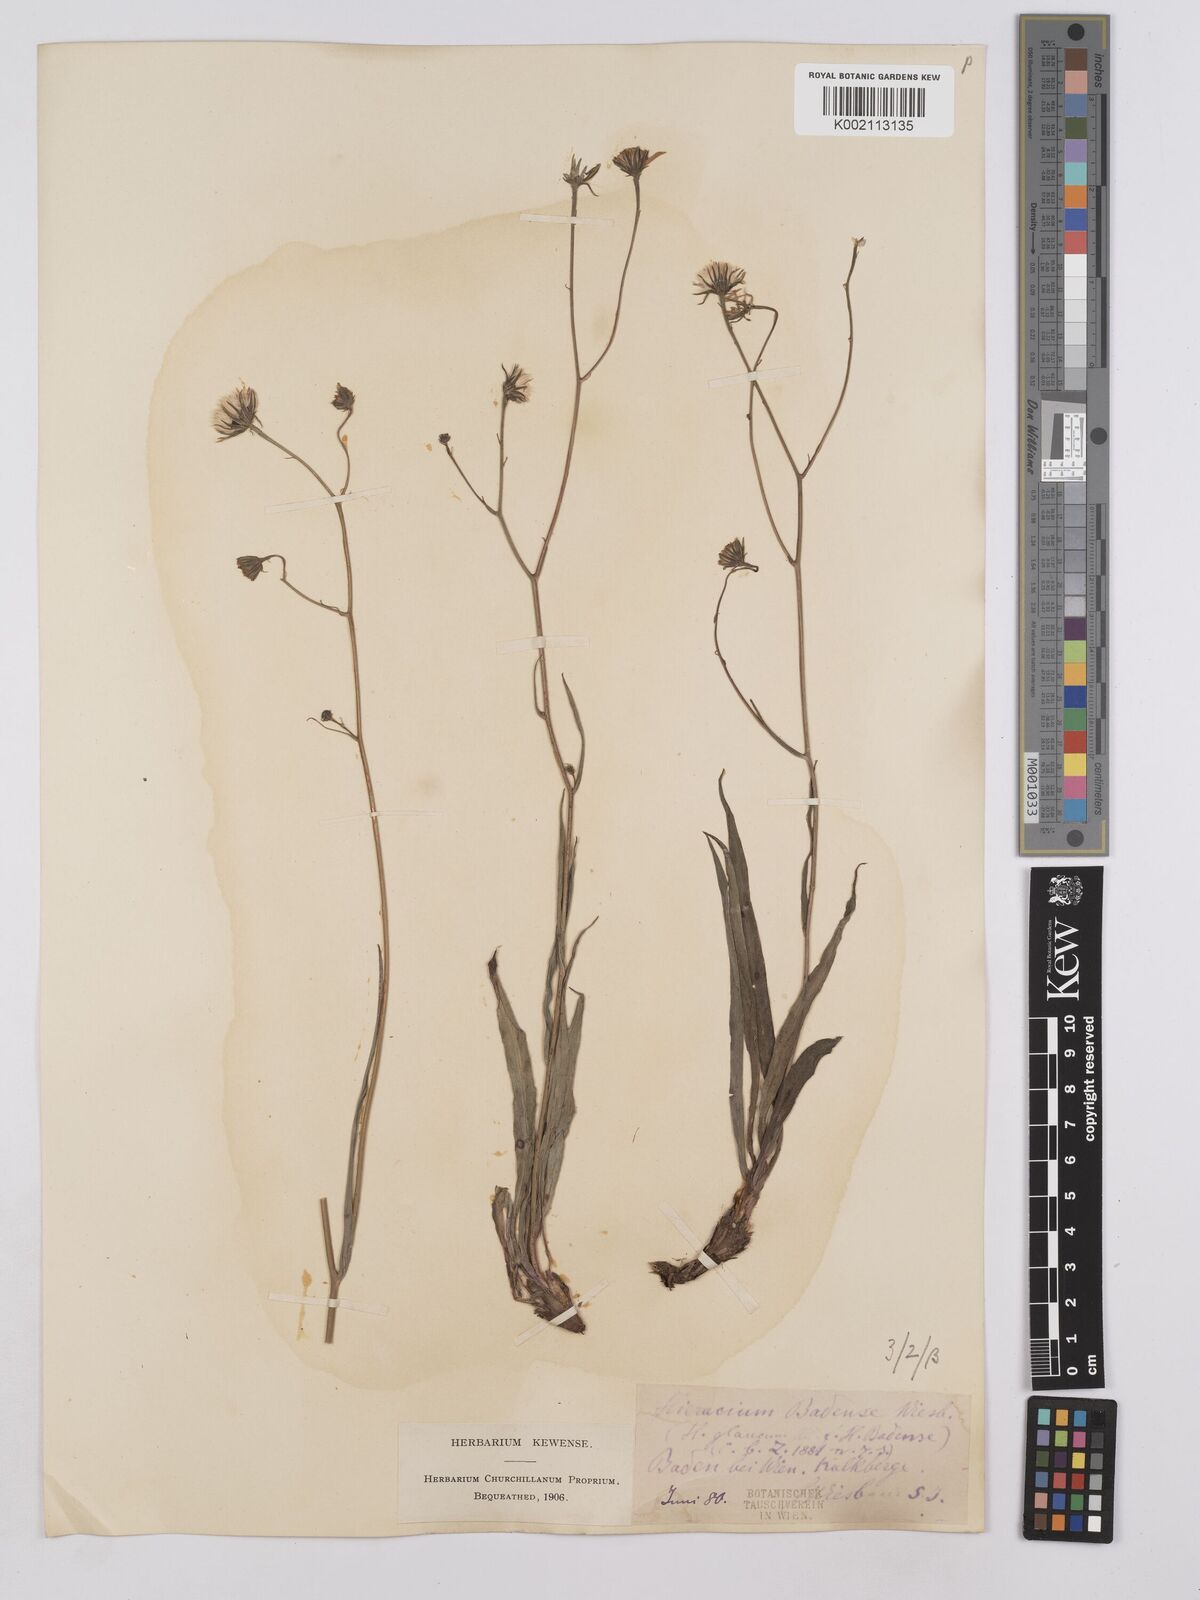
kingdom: Plantae
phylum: Tracheophyta
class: Magnoliopsida
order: Asterales
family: Asteraceae
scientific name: Asteraceae
